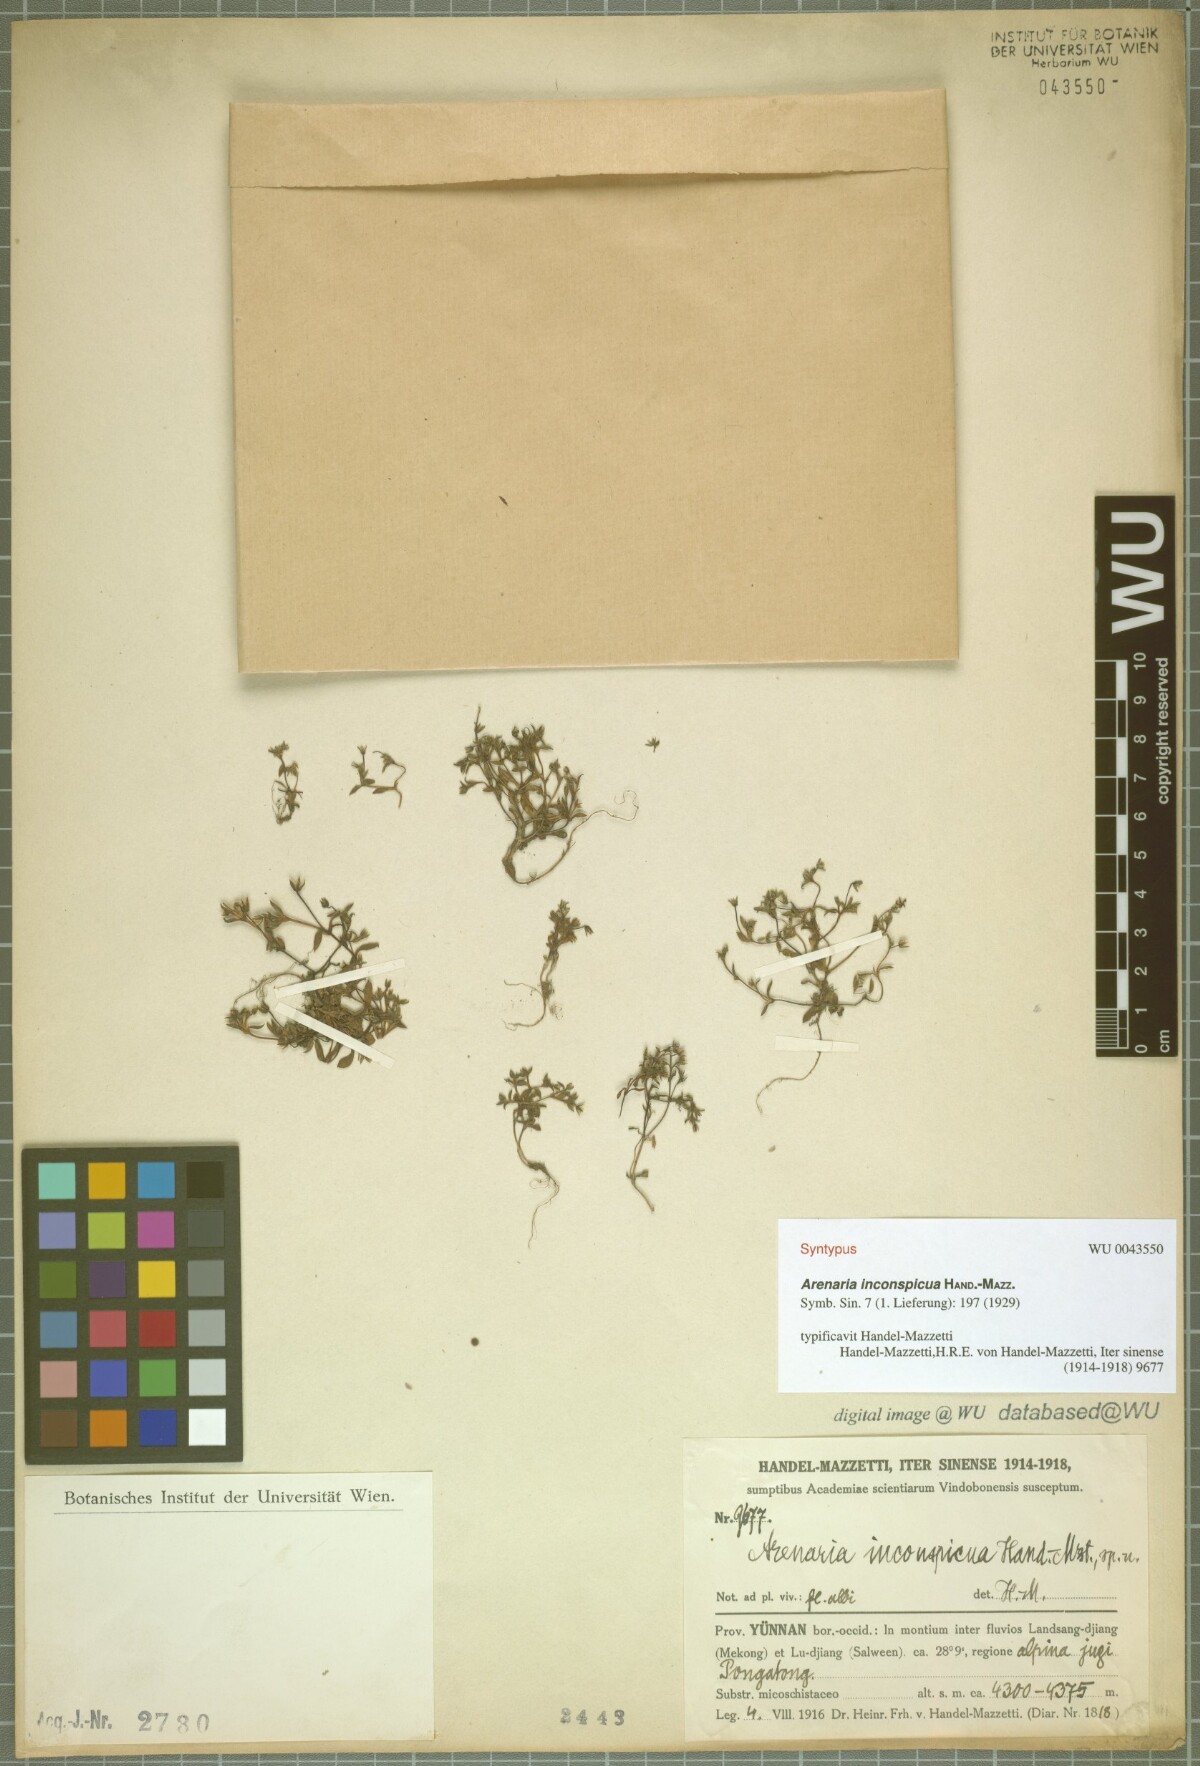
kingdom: Plantae
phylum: Tracheophyta
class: Magnoliopsida
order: Caryophyllales
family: Caryophyllaceae
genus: Odontostemma
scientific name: Odontostemma inconspicuum
